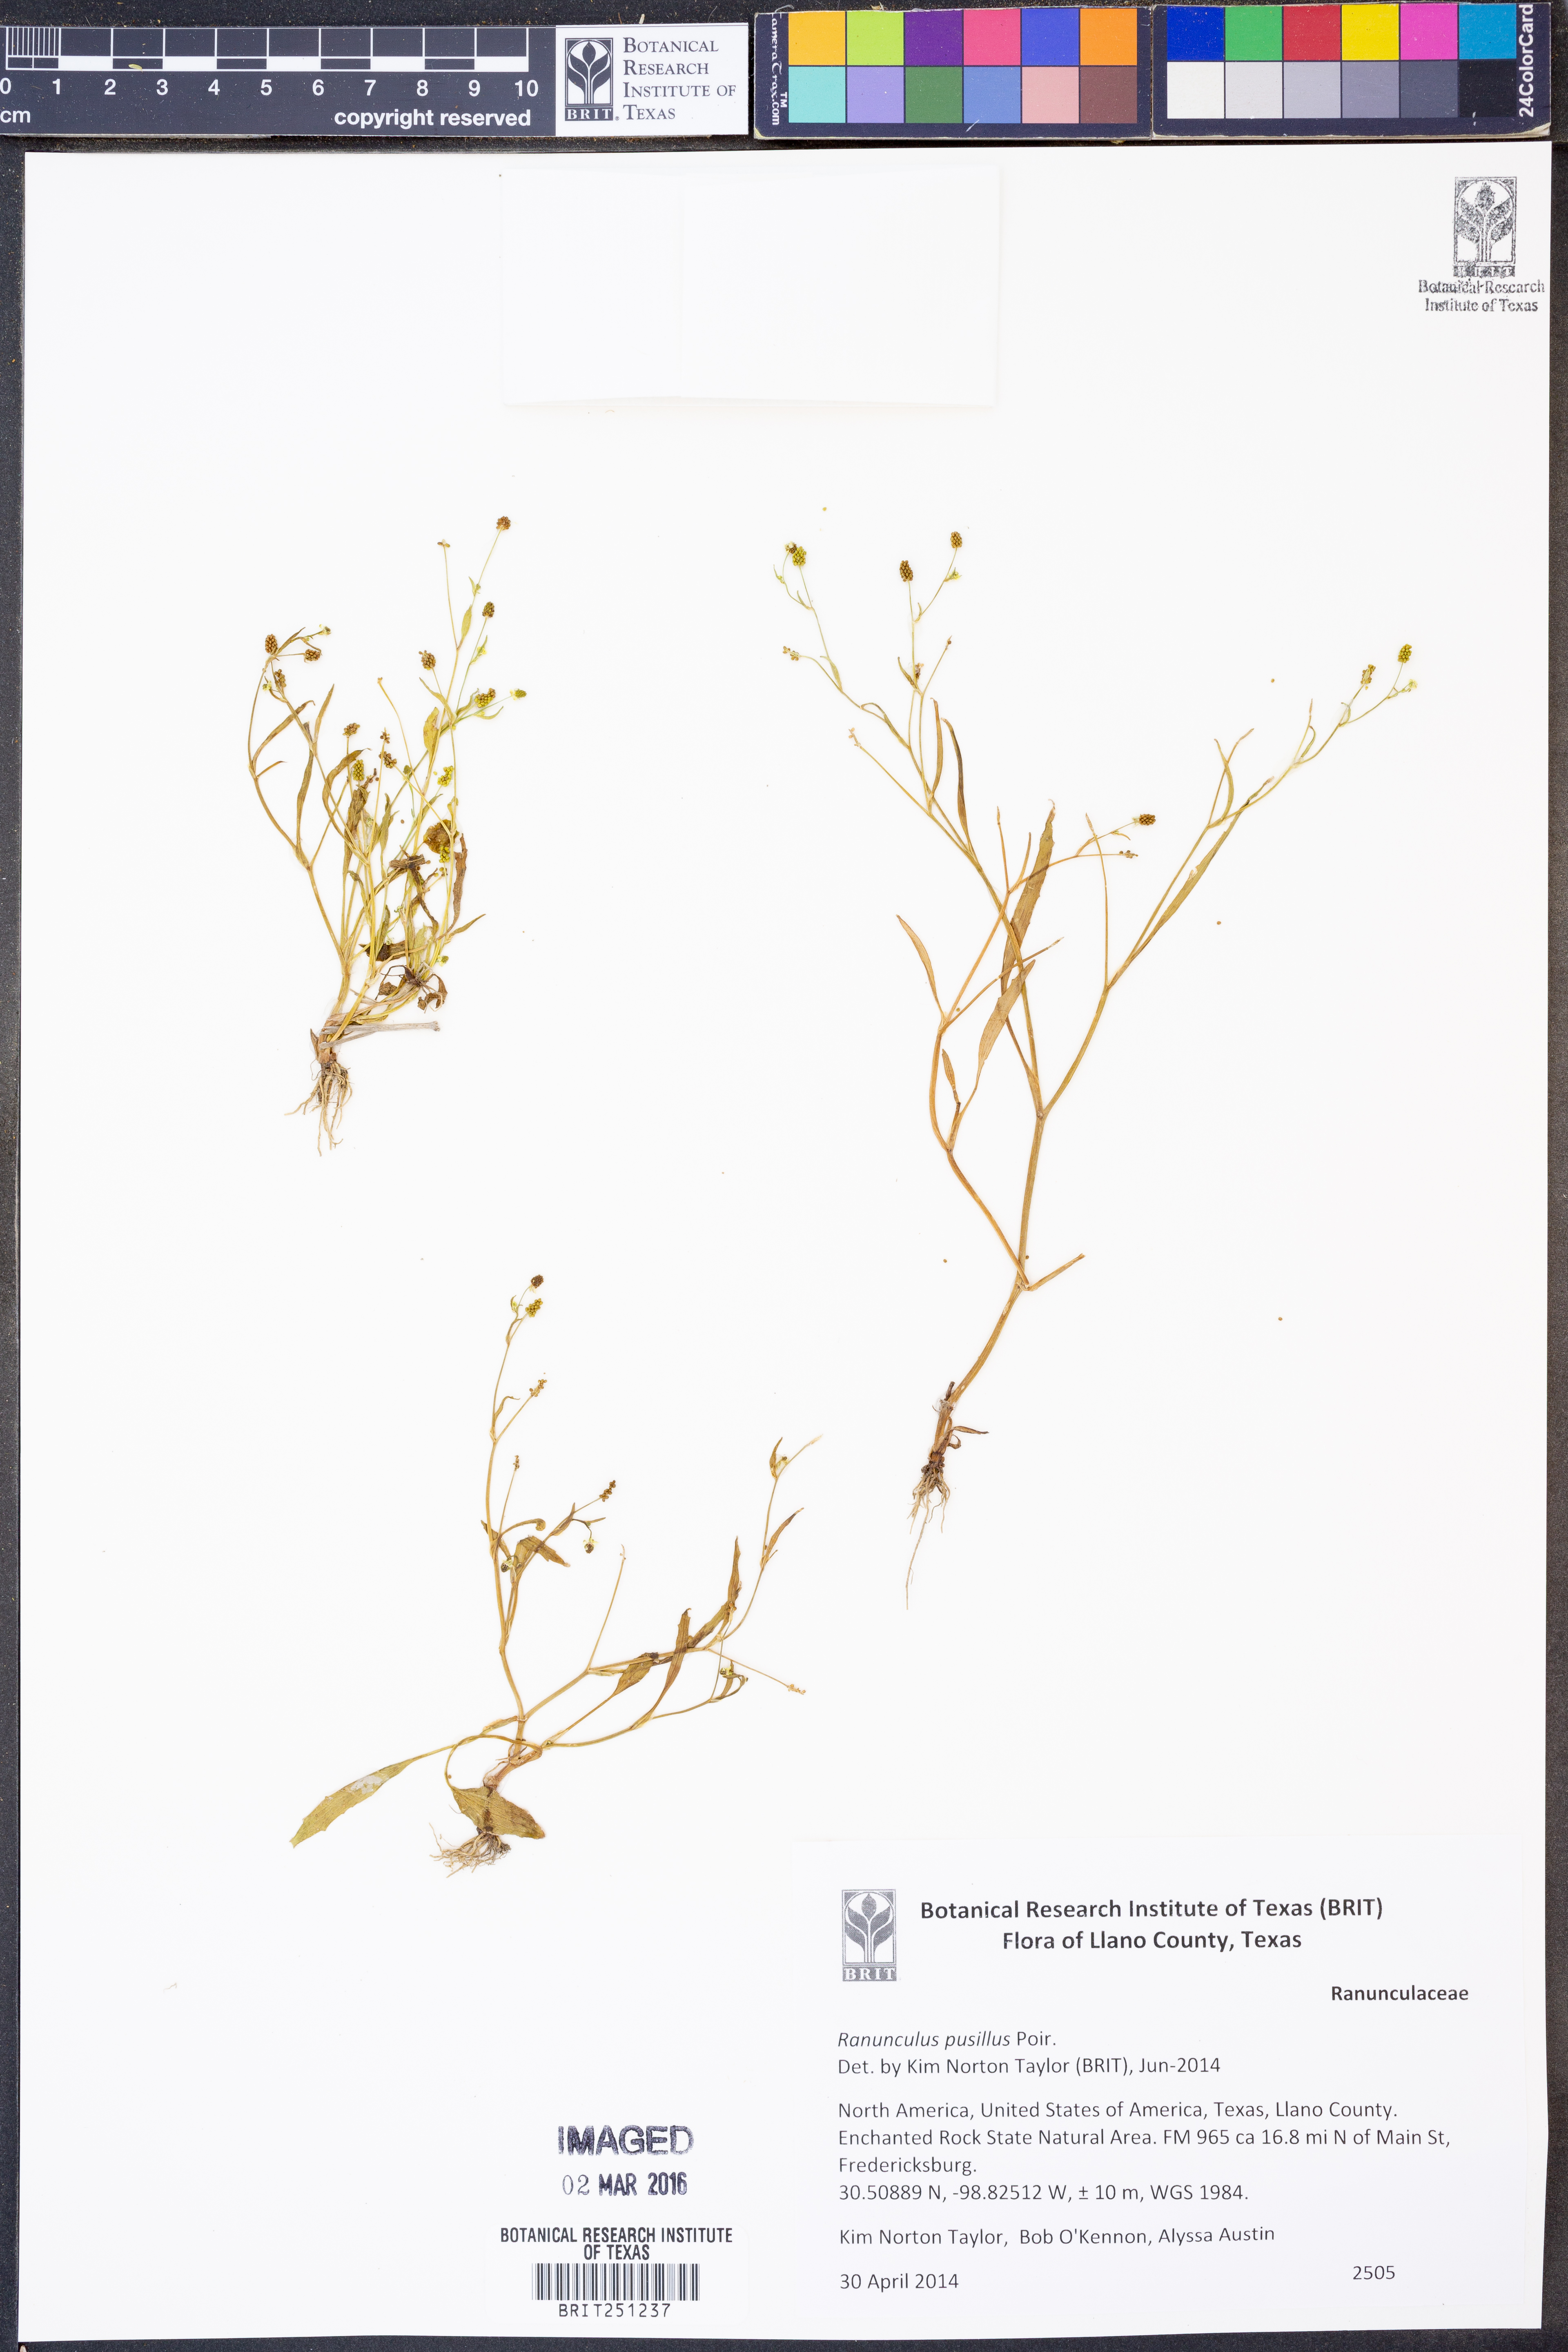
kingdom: Plantae
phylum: Tracheophyta
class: Magnoliopsida
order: Ranunculales
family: Ranunculaceae
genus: Ranunculus
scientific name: Ranunculus pusillus
